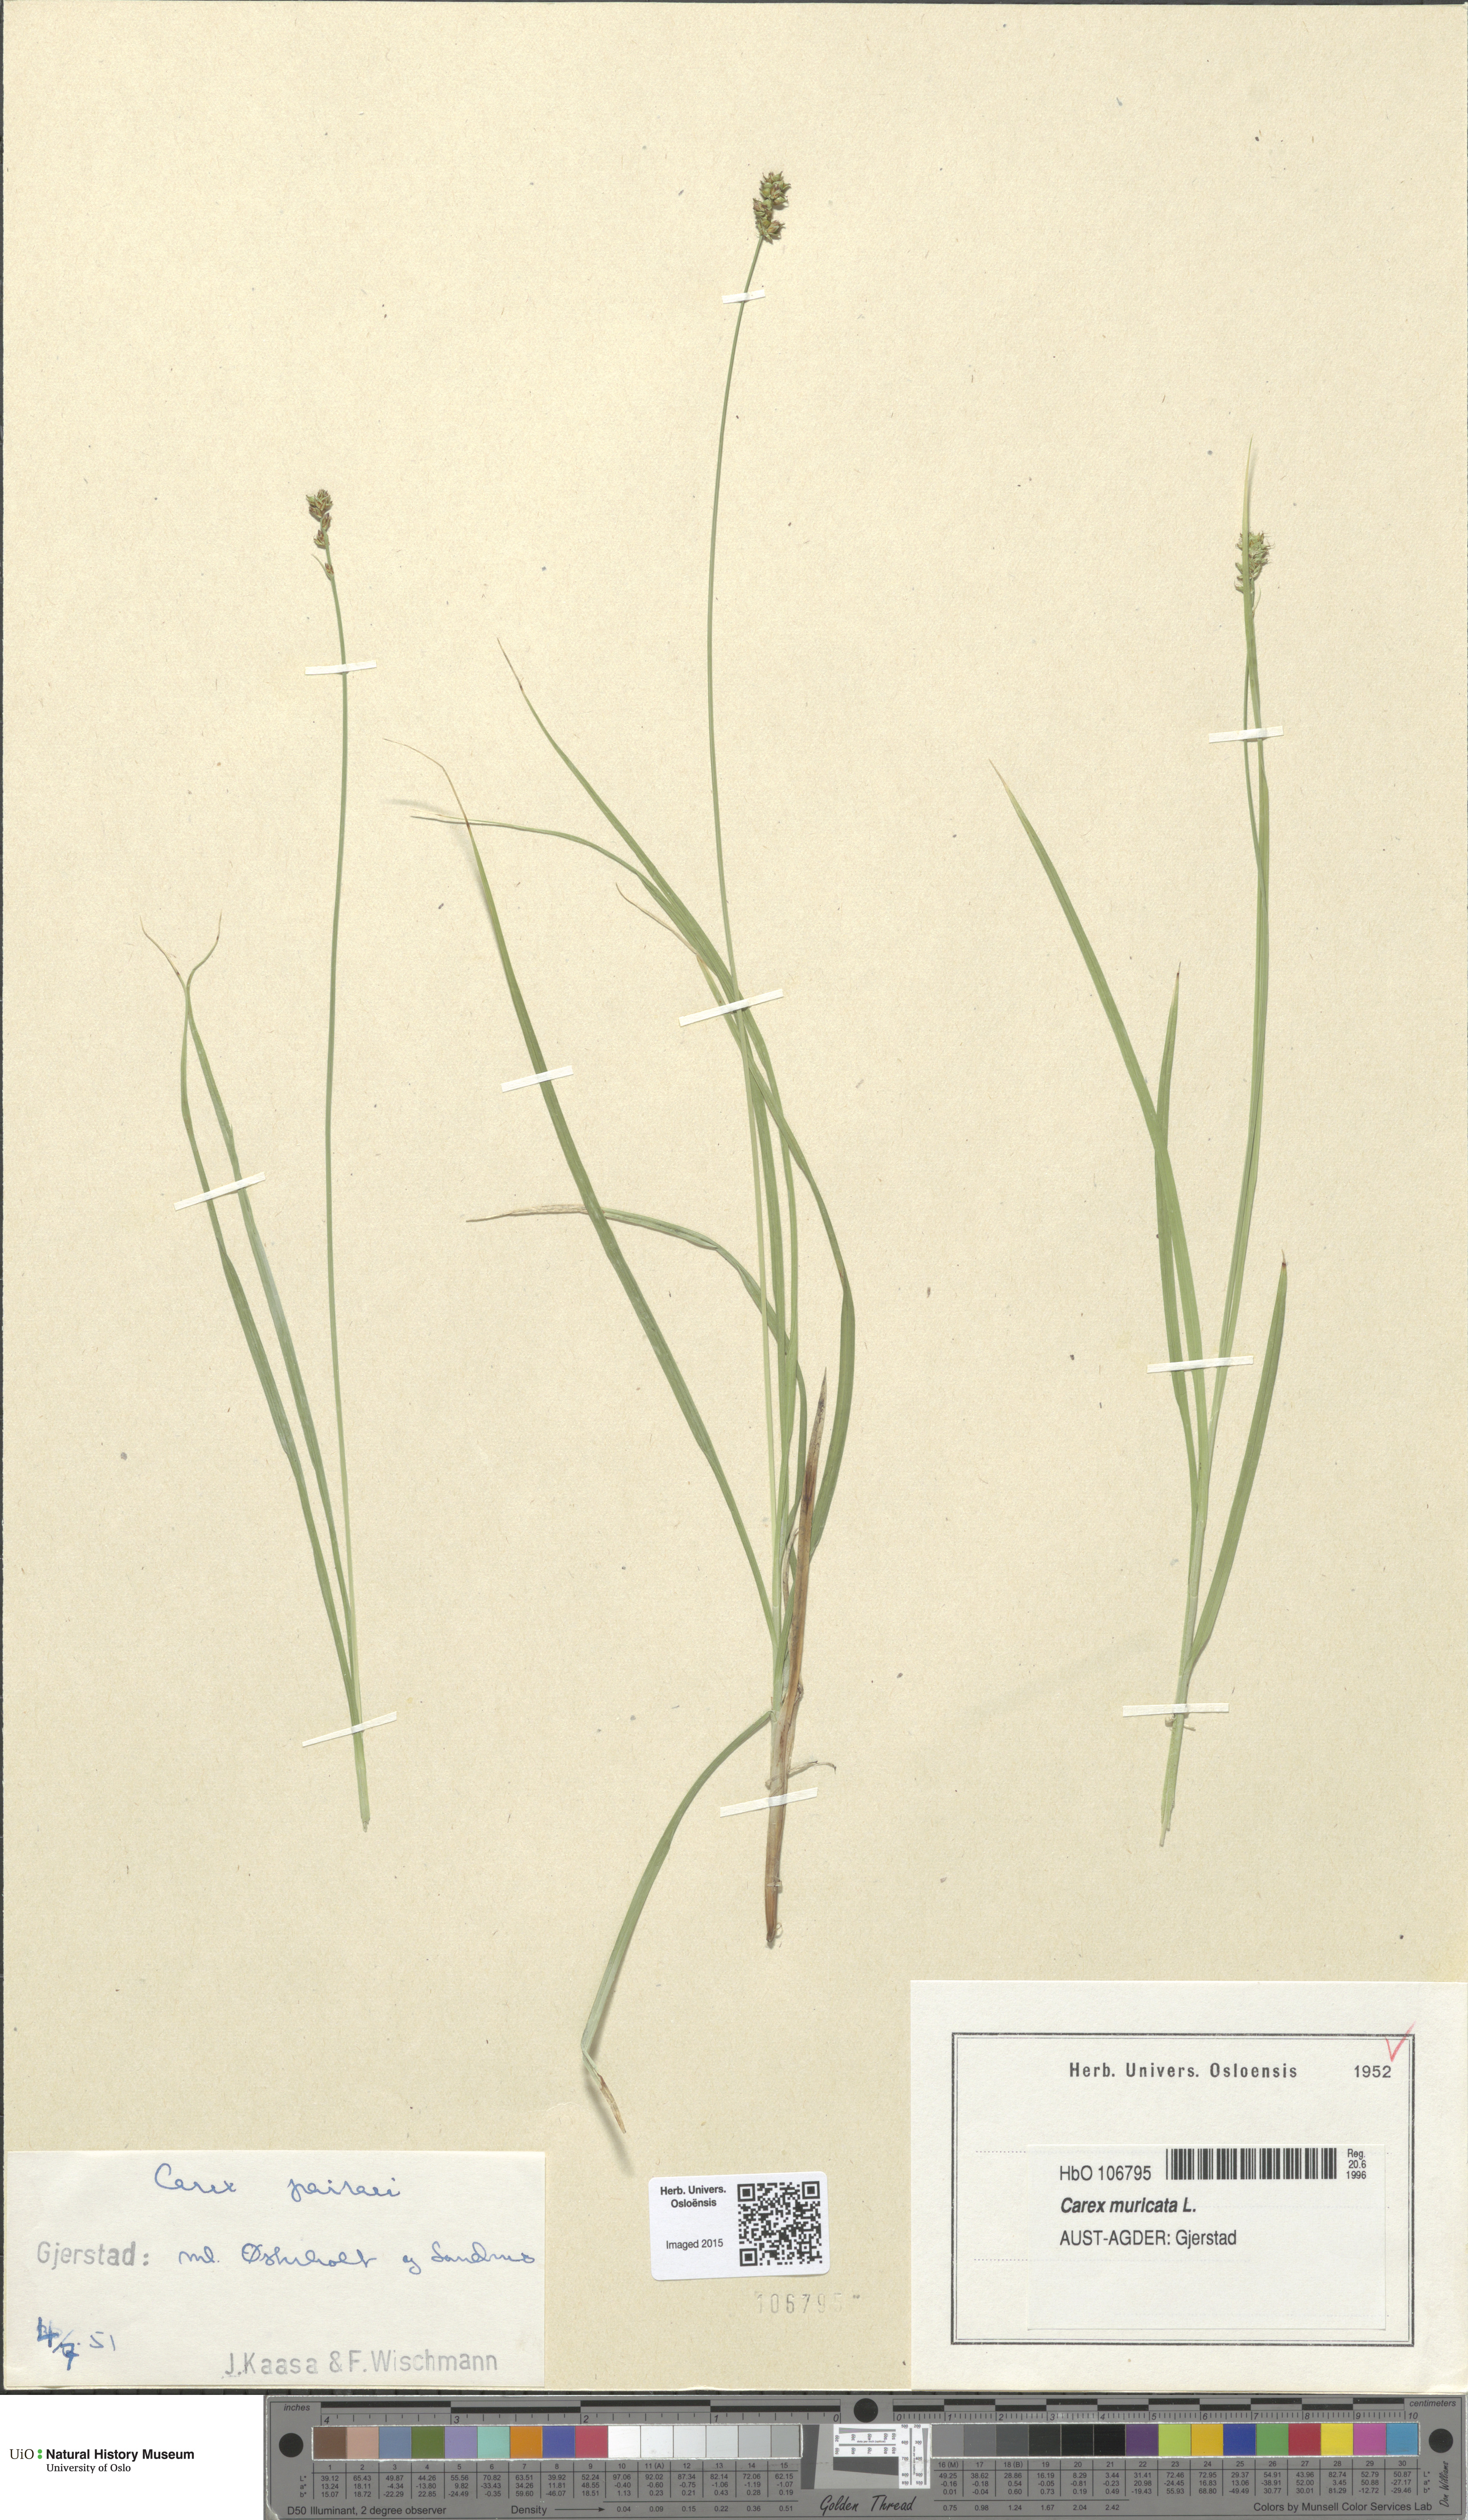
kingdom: Plantae
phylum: Tracheophyta
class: Liliopsida
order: Poales
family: Cyperaceae
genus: Carex
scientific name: Carex pairae
